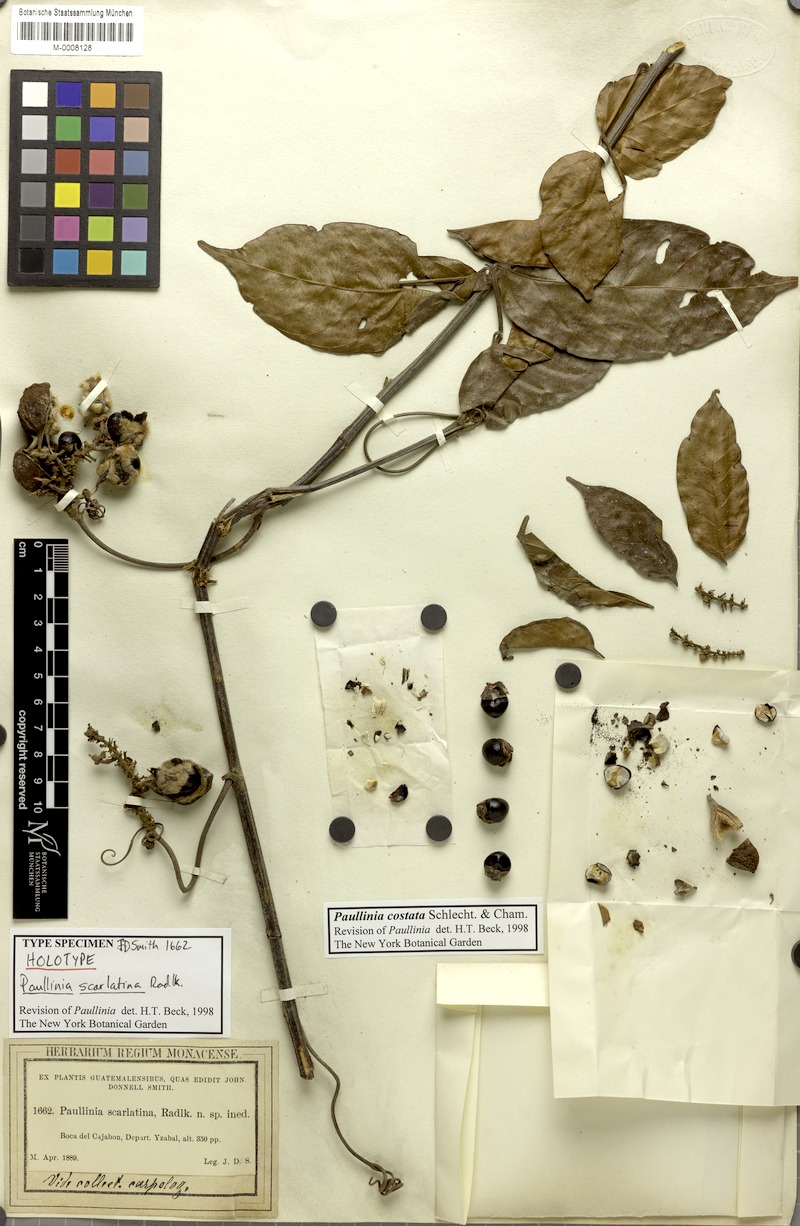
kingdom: Plantae
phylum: Tracheophyta
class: Magnoliopsida
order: Sapindales
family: Sapindaceae
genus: Paullinia
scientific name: Paullinia costata
